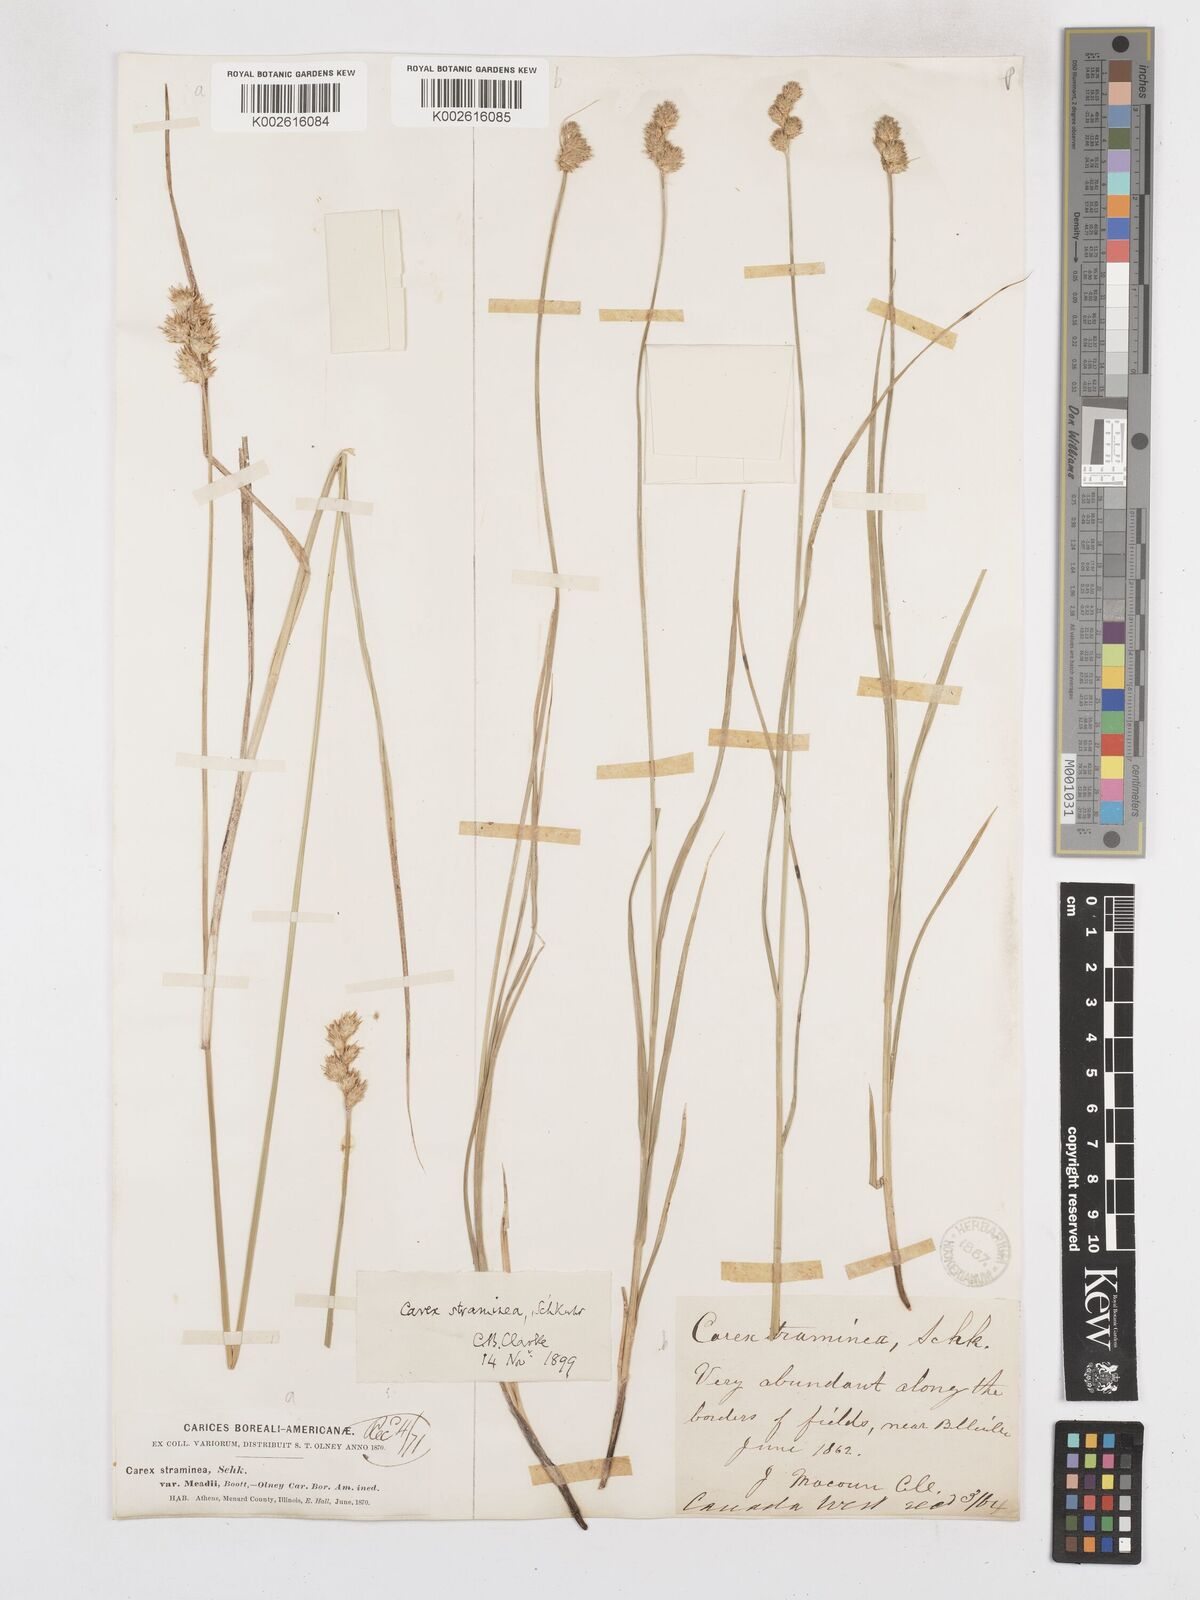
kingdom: Plantae
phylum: Tracheophyta
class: Liliopsida
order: Poales
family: Cyperaceae
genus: Carex
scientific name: Carex brevior
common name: Brevior sedge
